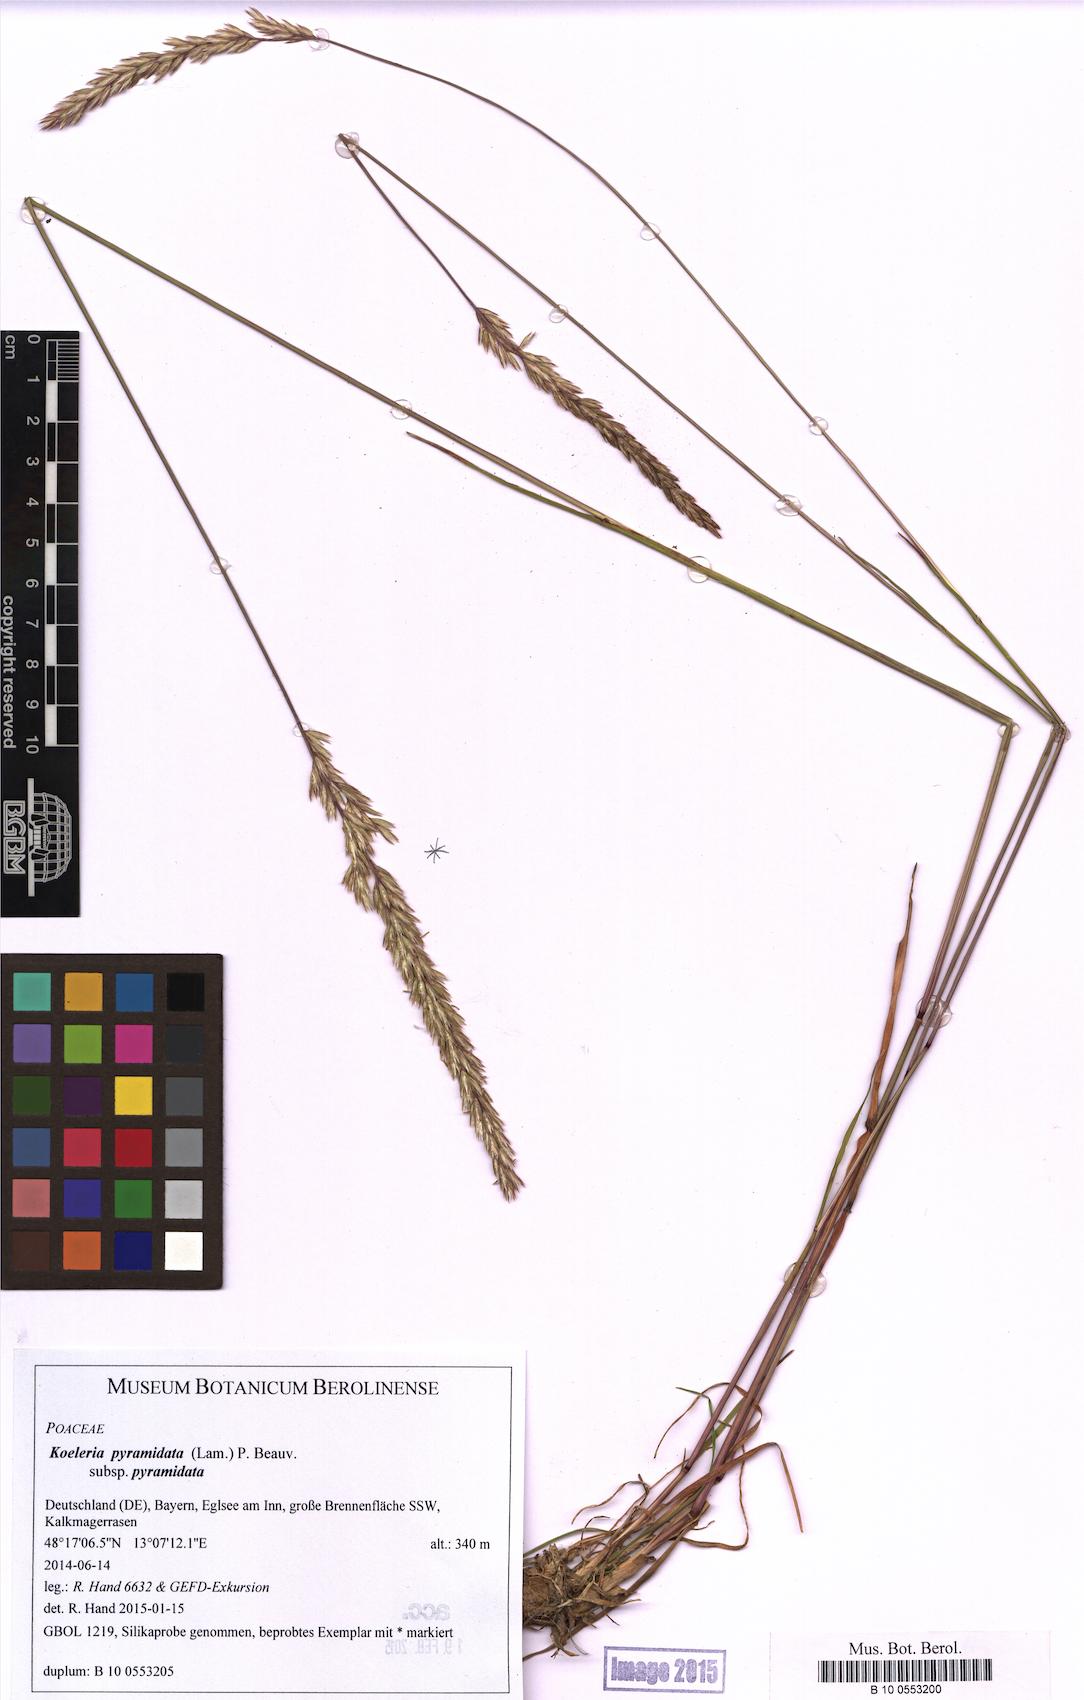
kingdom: Plantae
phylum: Tracheophyta
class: Liliopsida
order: Poales
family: Poaceae
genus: Koeleria
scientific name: Koeleria pyramidata
